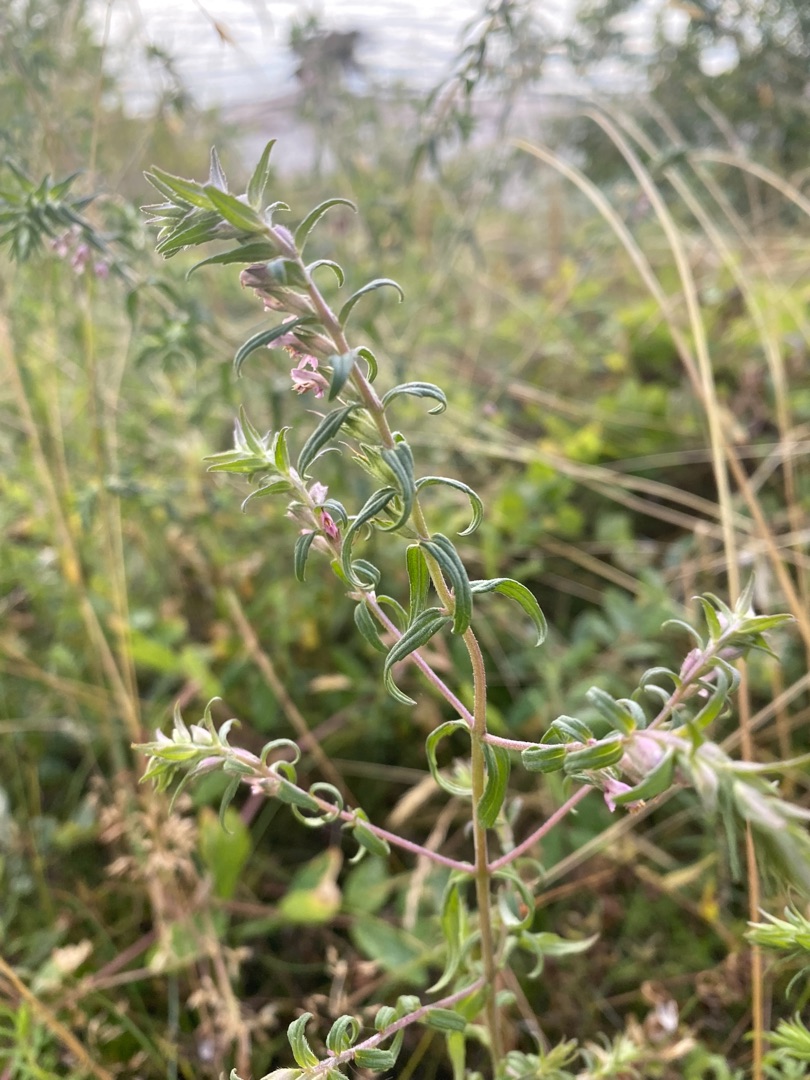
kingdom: Plantae
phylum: Tracheophyta
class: Magnoliopsida
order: Lamiales
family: Orobanchaceae
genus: Odontites
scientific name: Odontites vulgaris
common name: Høst-rødtop
